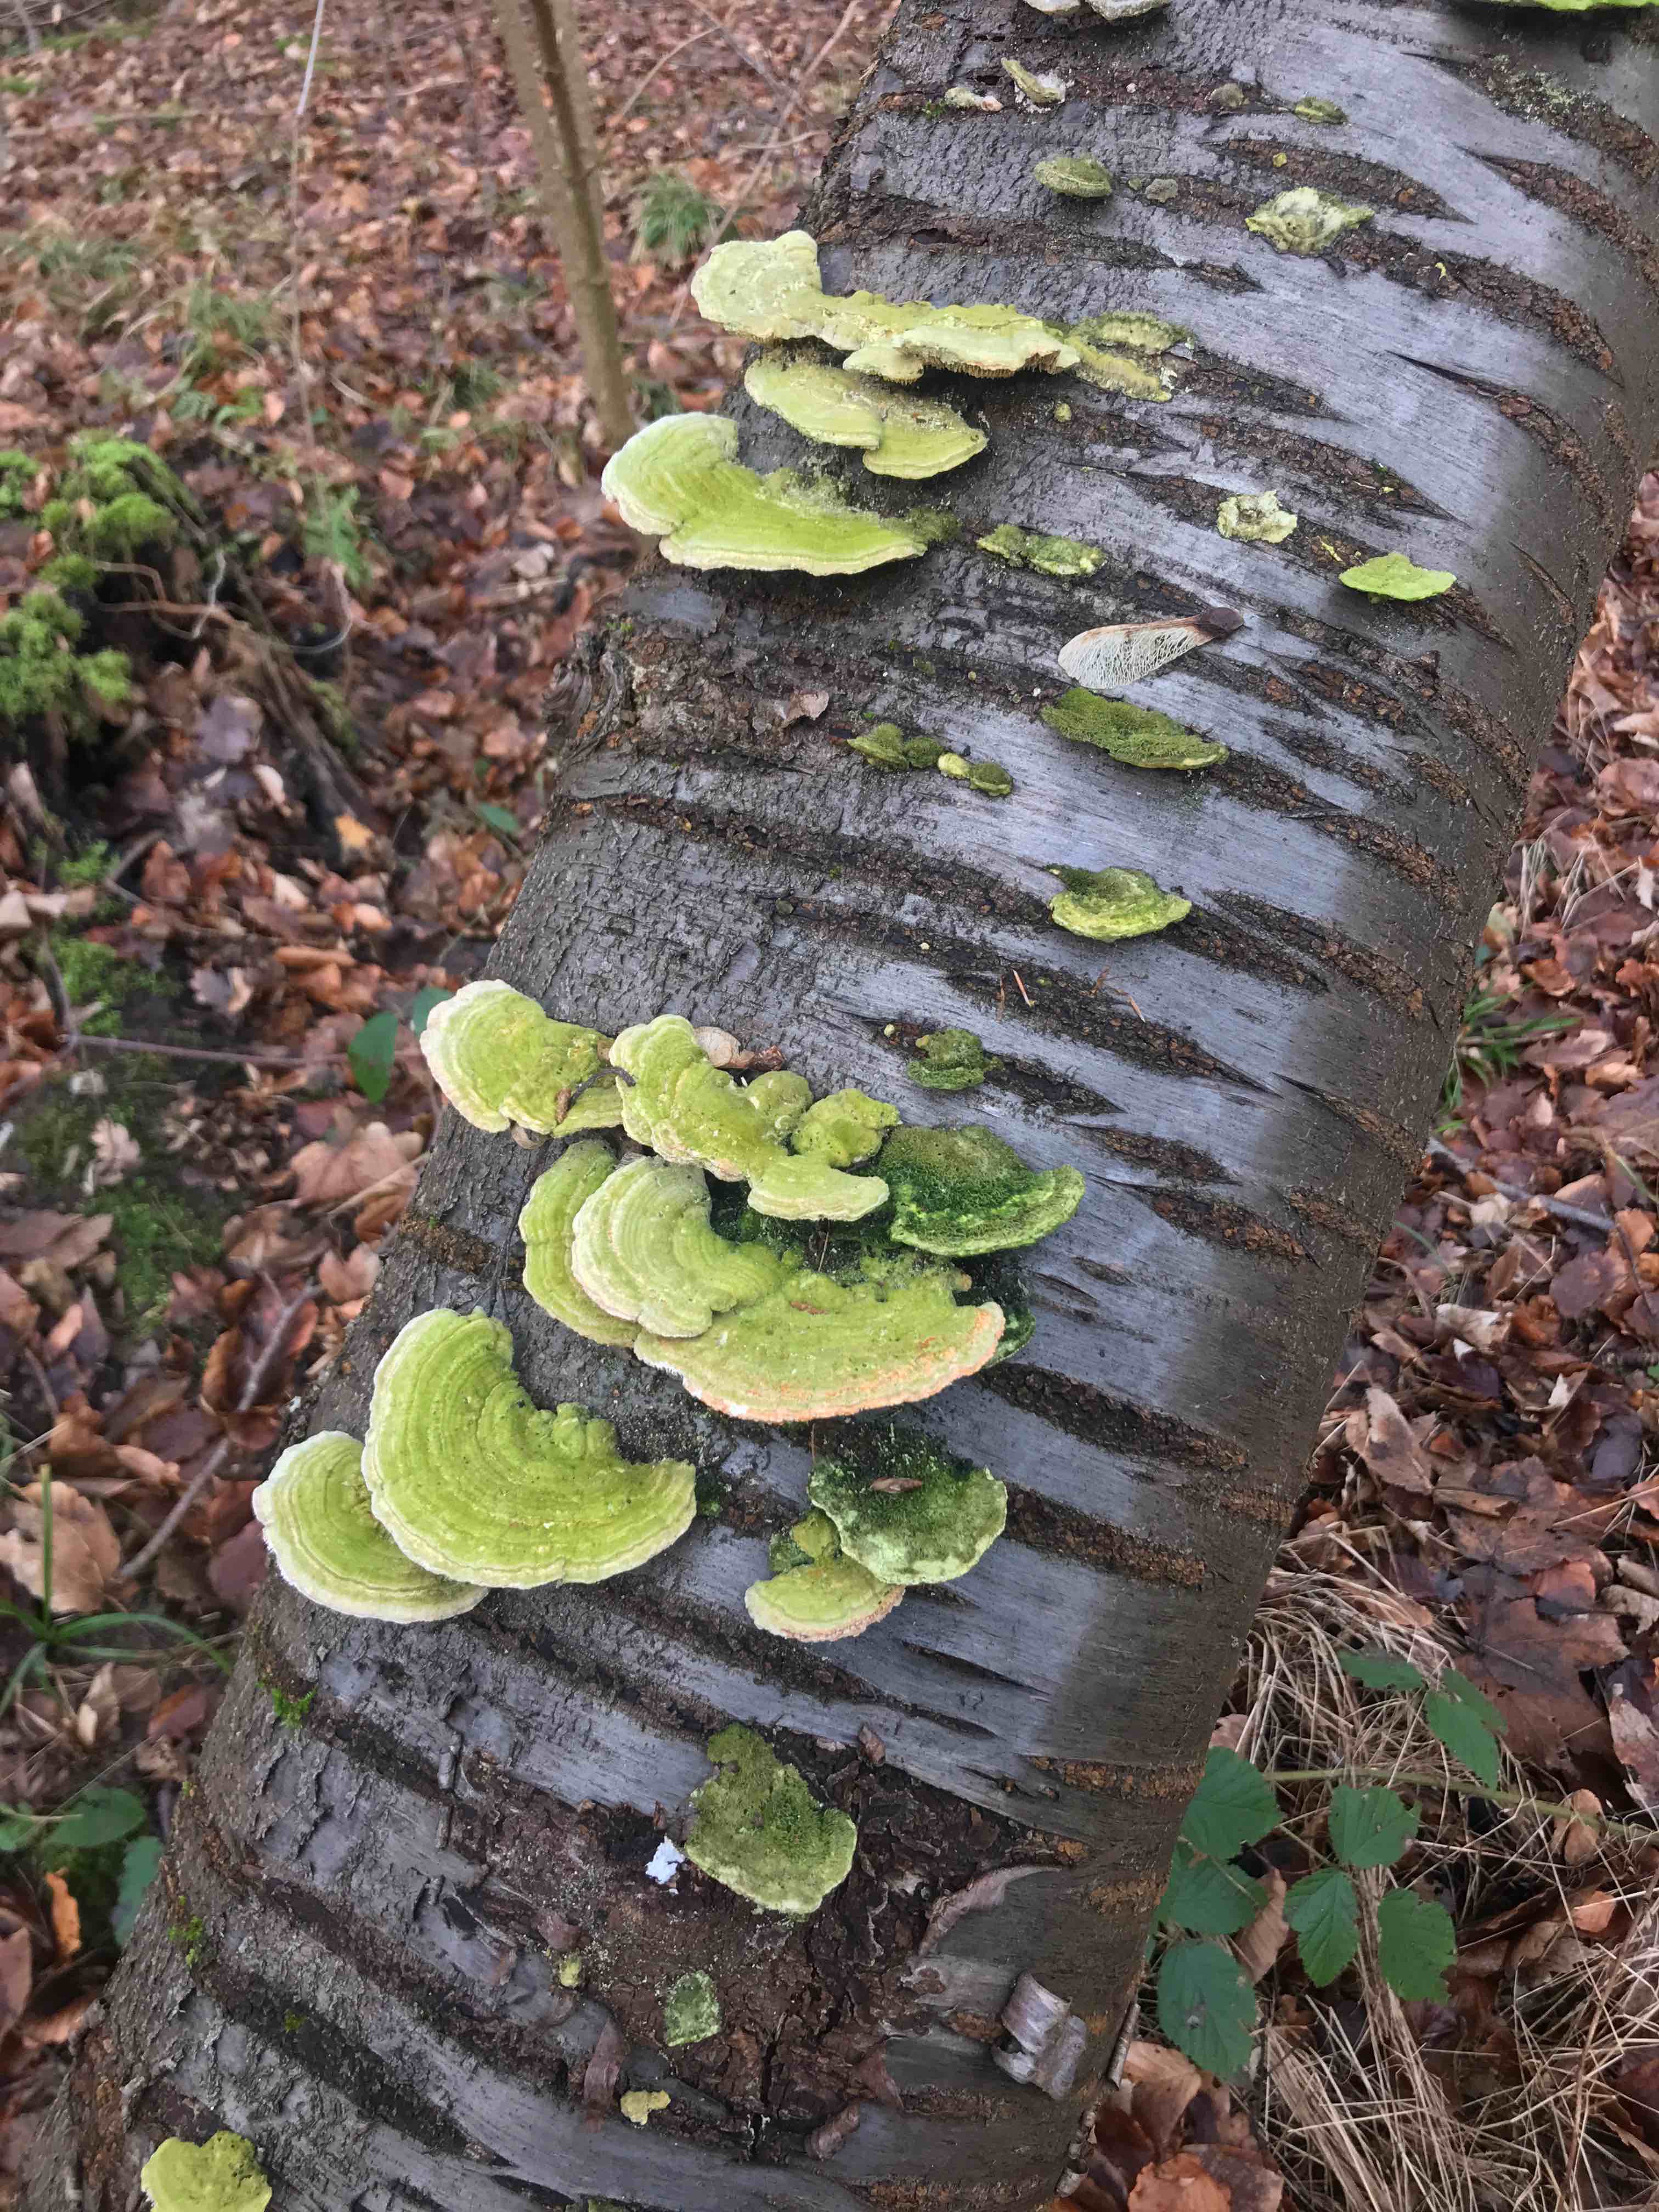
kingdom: Fungi
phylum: Basidiomycota
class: Agaricomycetes
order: Polyporales
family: Polyporaceae
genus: Lenzites
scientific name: Lenzites betulinus
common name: birke-læderporesvamp
